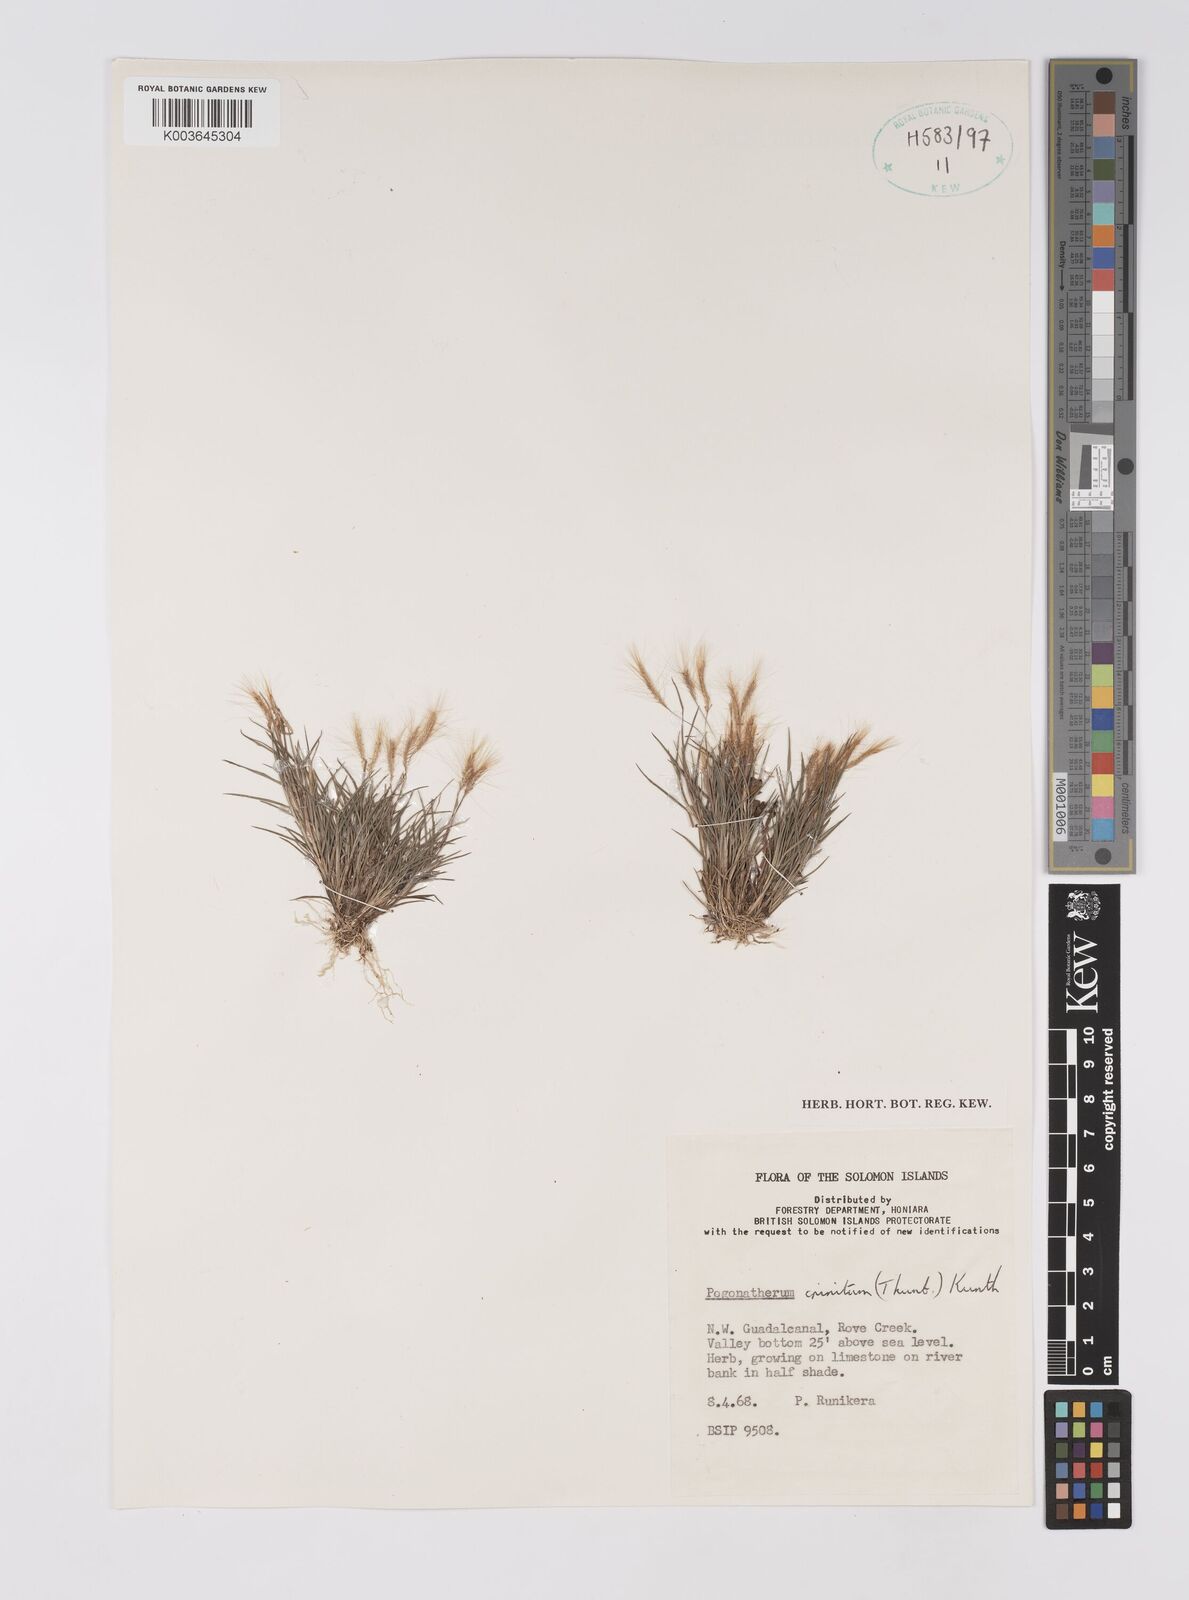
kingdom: Plantae
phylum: Tracheophyta
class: Liliopsida
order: Poales
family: Poaceae
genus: Pogonatherum
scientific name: Pogonatherum crinitum
